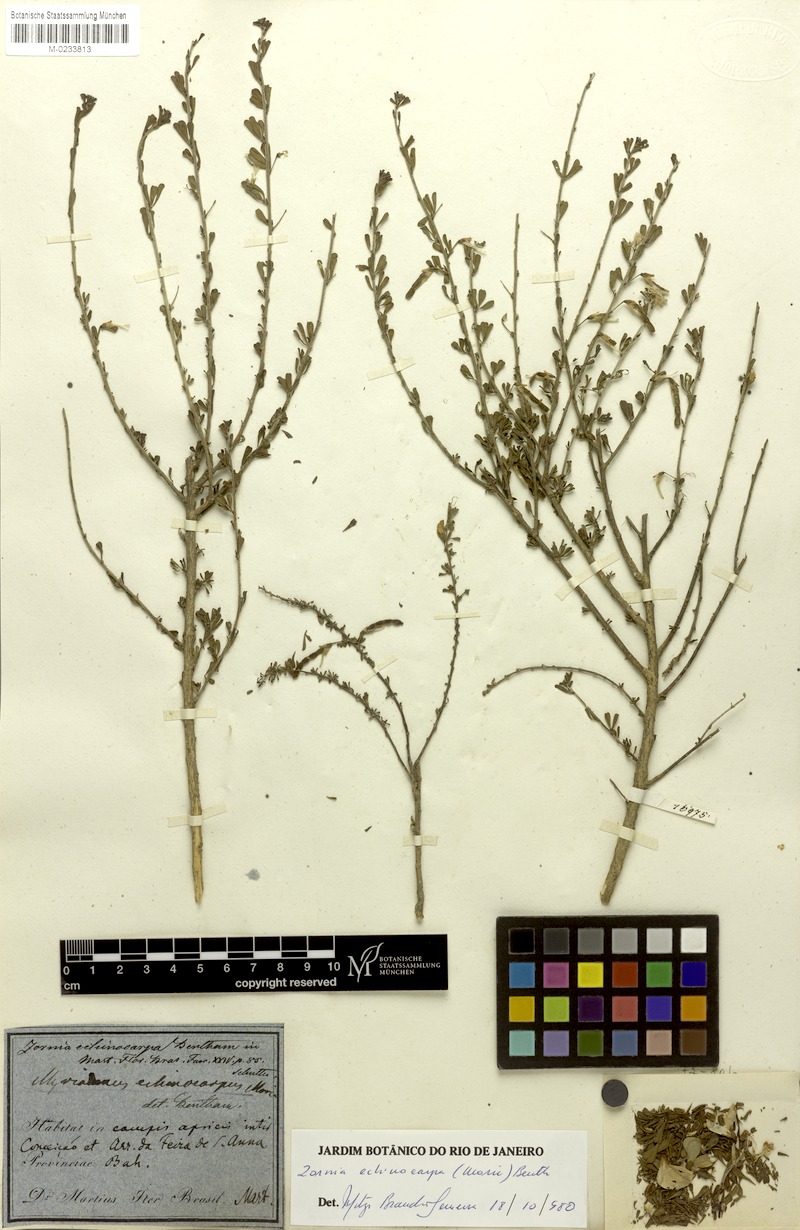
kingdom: Plantae
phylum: Tracheophyta
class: Magnoliopsida
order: Fabales
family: Fabaceae
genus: Zornia
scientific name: Zornia echinocarpa
